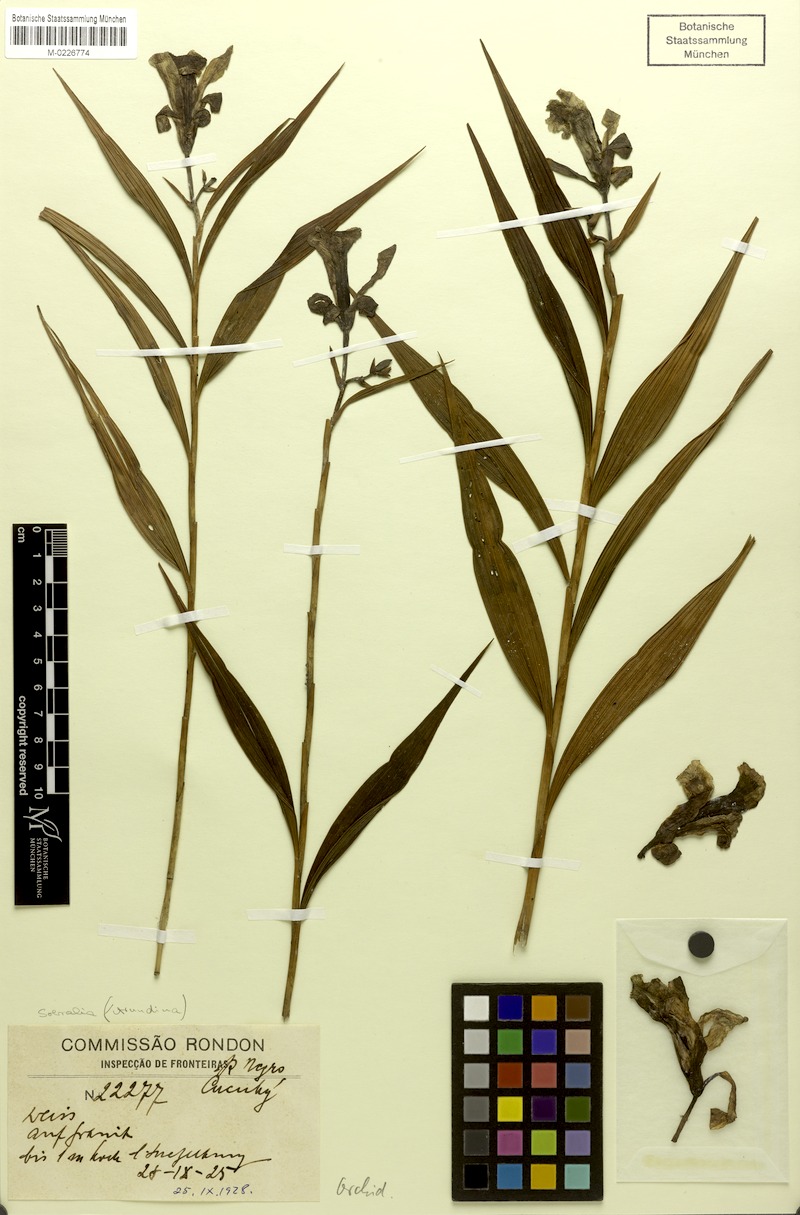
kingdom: Plantae
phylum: Tracheophyta
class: Liliopsida
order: Asparagales
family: Orchidaceae
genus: Sobralia
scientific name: Sobralia
